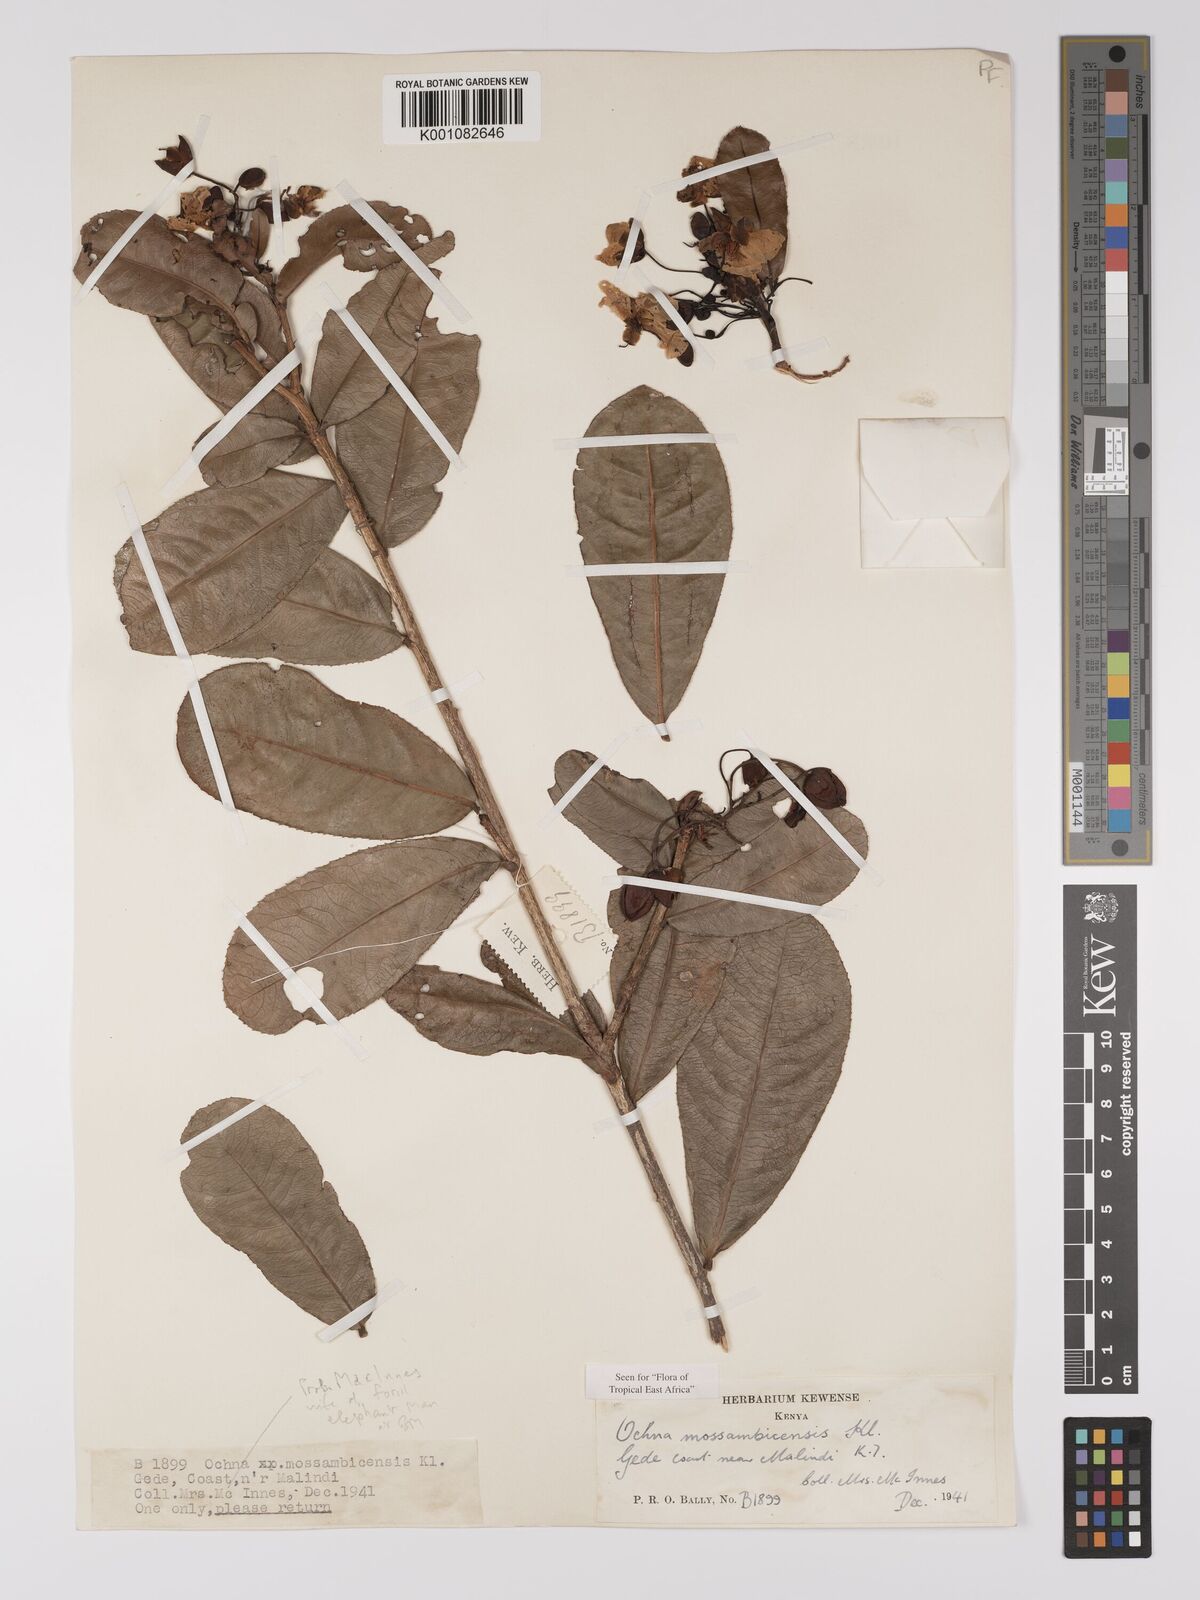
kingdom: Plantae
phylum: Tracheophyta
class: Magnoliopsida
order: Malpighiales
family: Ochnaceae
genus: Ochna
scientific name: Ochna atropurpurea
